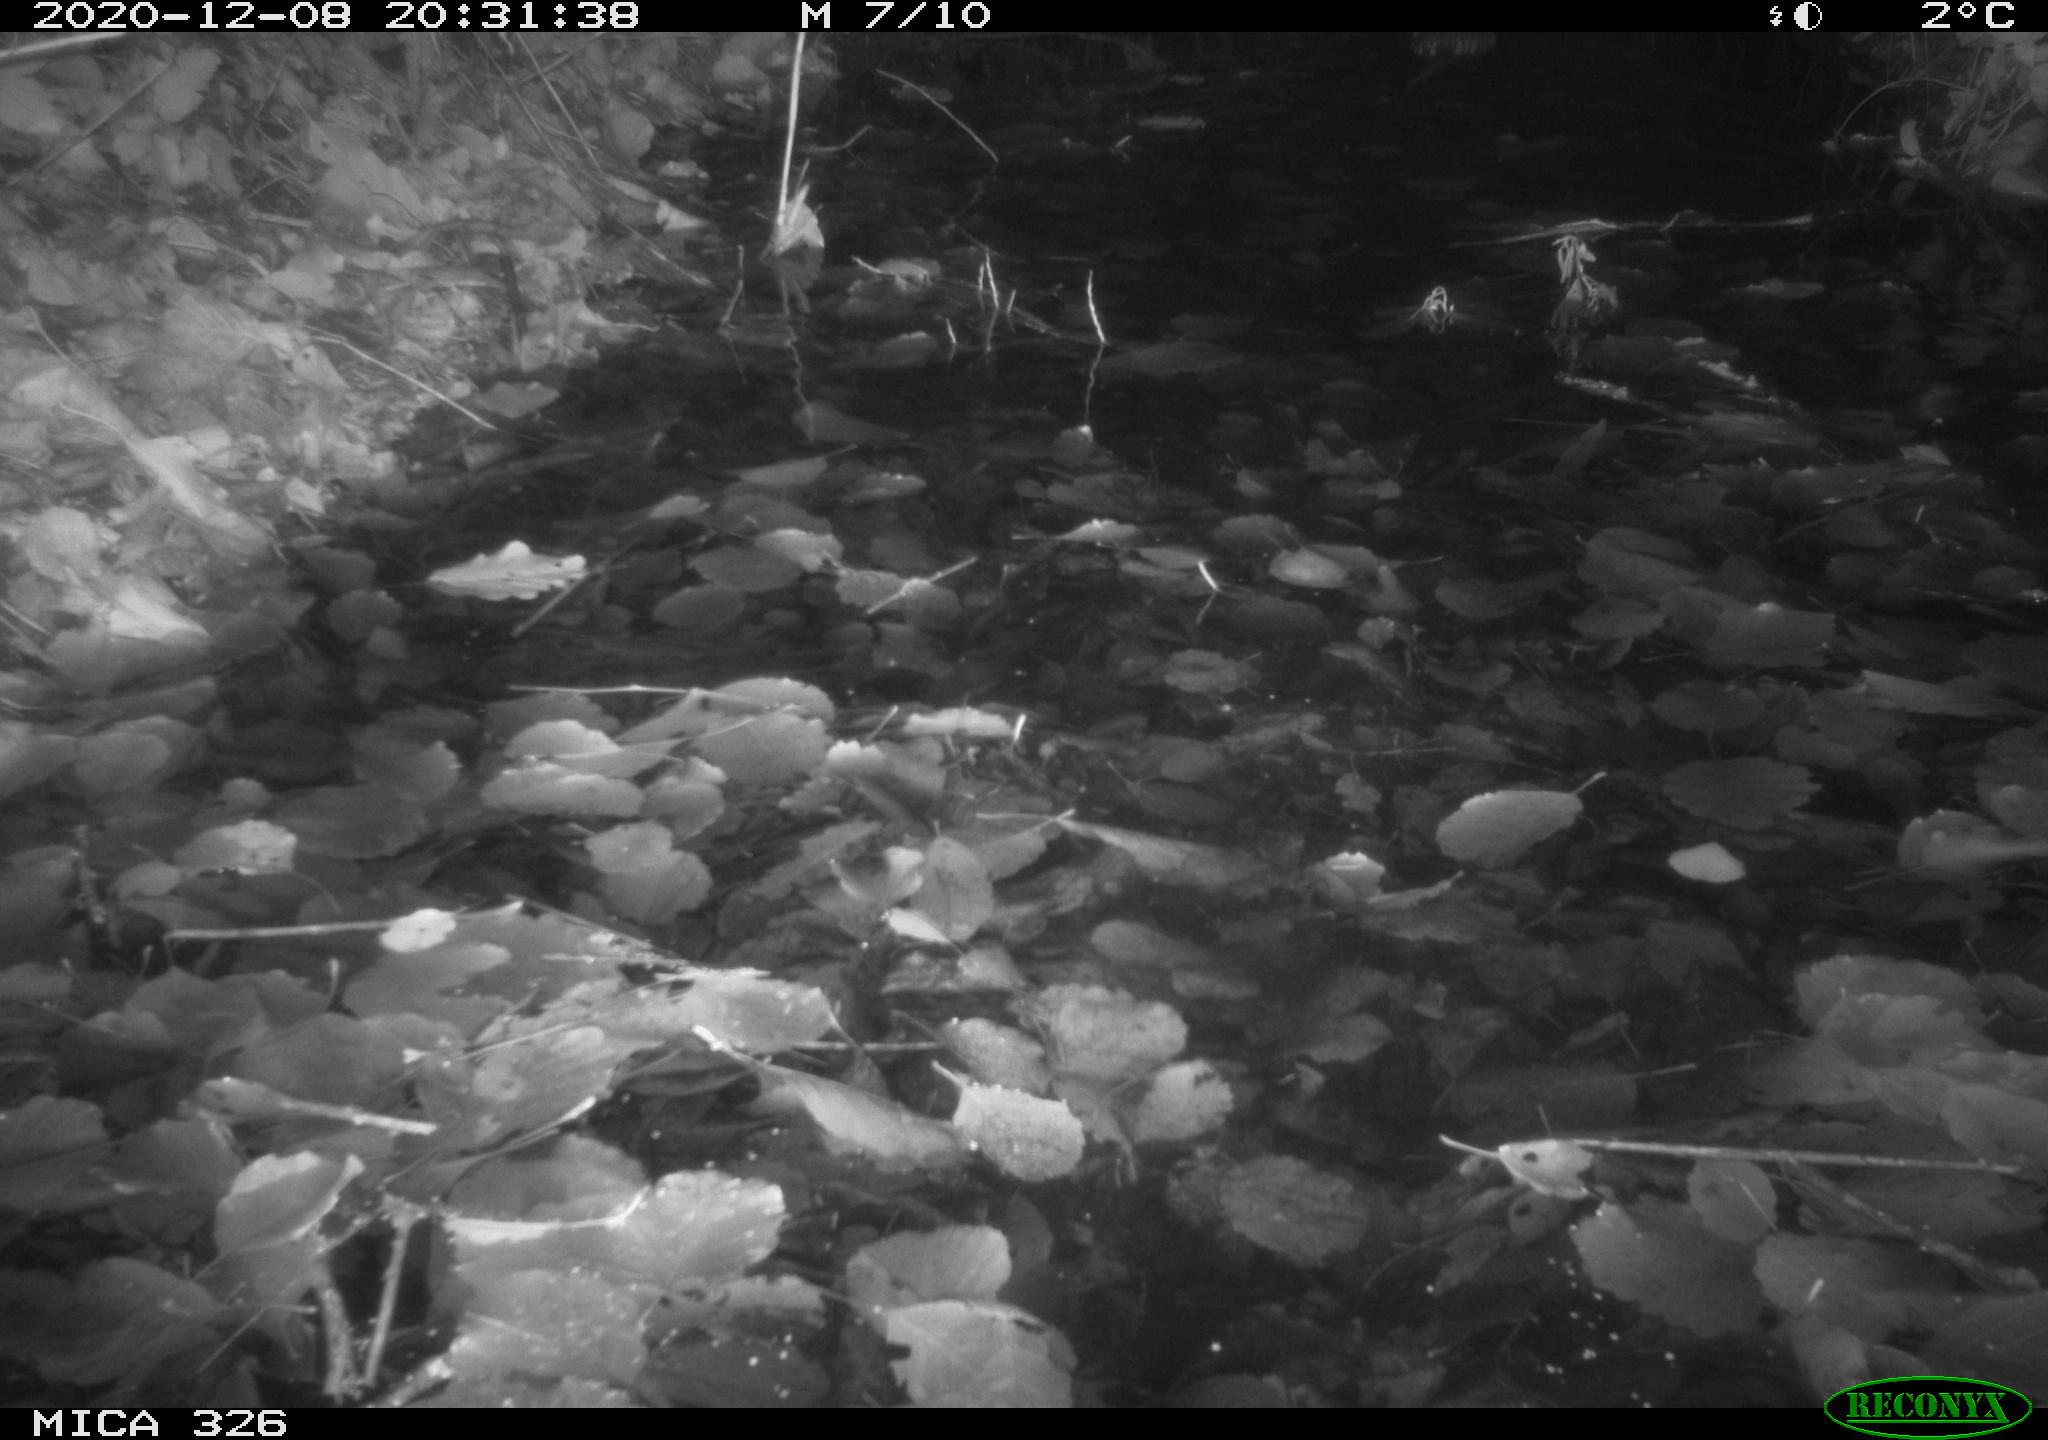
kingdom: Animalia
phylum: Chordata
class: Mammalia
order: Rodentia
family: Cricetidae
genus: Ondatra
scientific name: Ondatra zibethicus
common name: Muskrat
